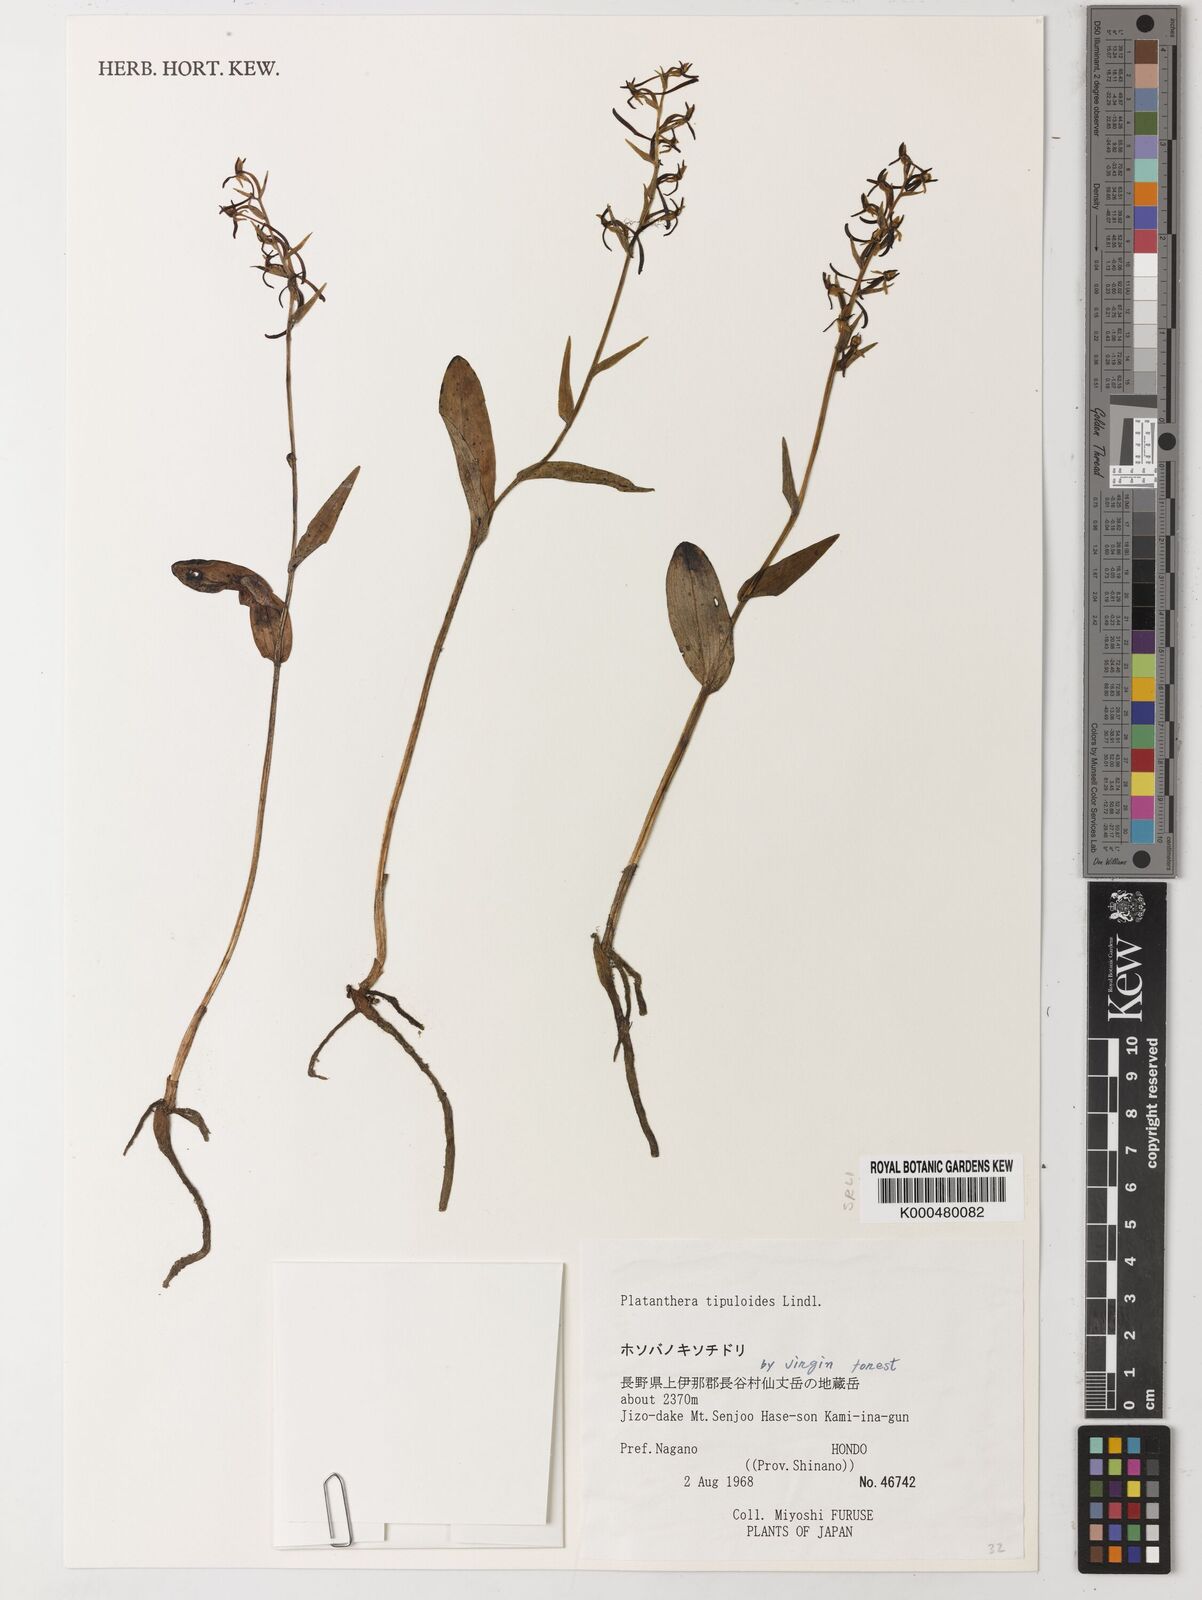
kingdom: Plantae
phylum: Tracheophyta
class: Liliopsida
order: Asparagales
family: Orchidaceae
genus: Platanthera
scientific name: Platanthera tipuloides
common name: Aleutian bog orchid
